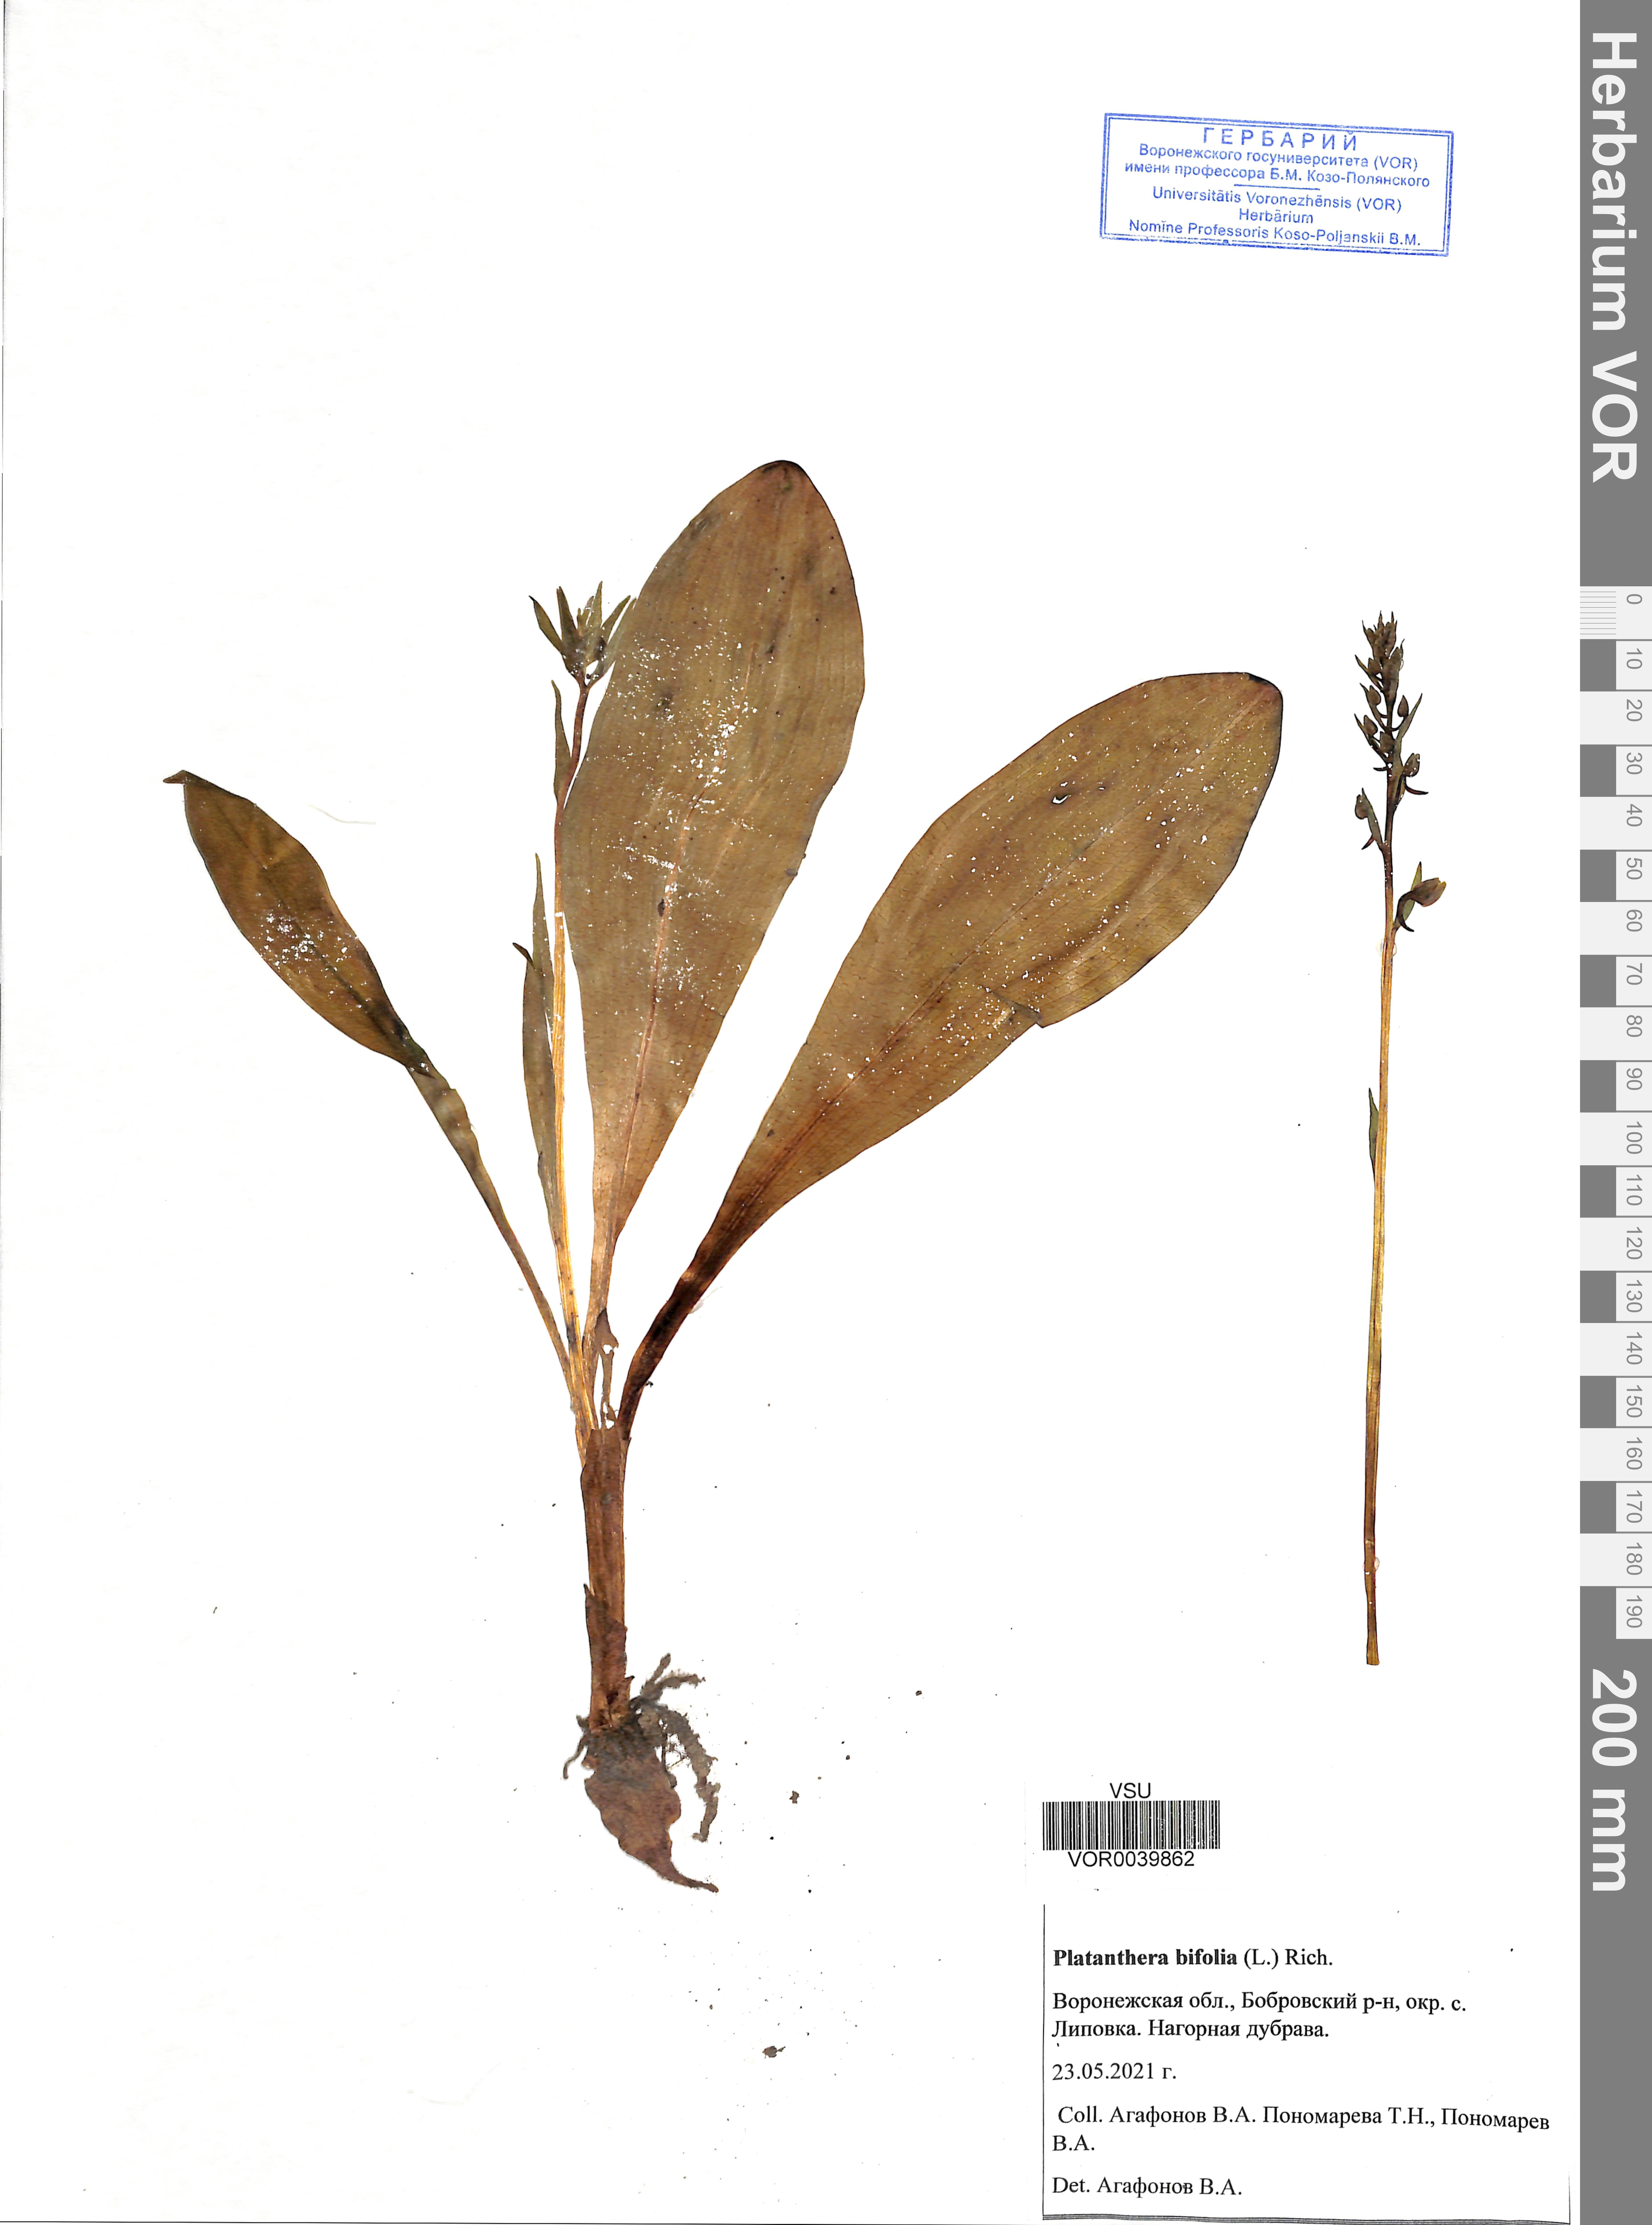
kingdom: Plantae
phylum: Tracheophyta
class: Liliopsida
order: Asparagales
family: Orchidaceae
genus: Platanthera
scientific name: Platanthera bifolia
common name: Lesser butterfly-orchid
